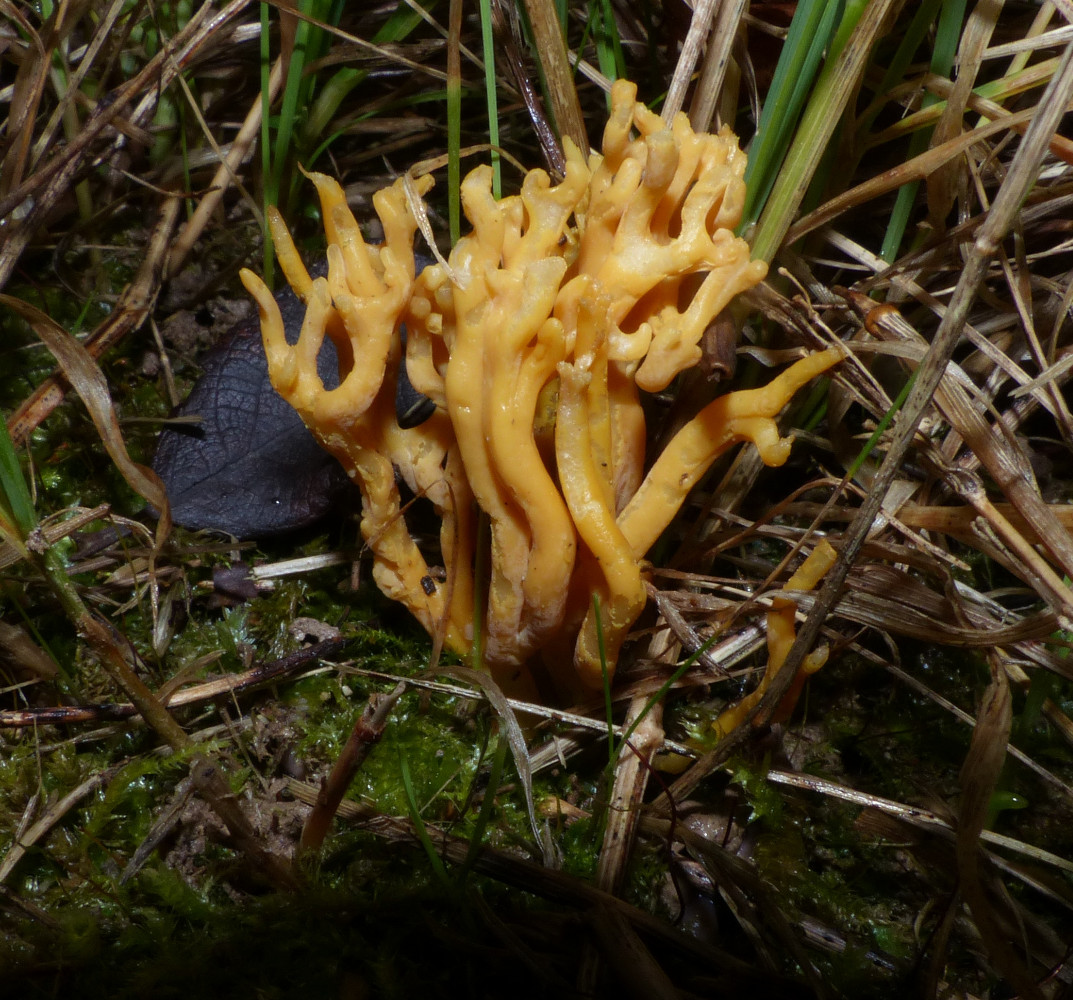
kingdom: Fungi
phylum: Basidiomycota
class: Agaricomycetes
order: Agaricales
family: Clavariaceae
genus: Clavulinopsis
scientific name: Clavulinopsis corniculata
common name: eng-køllesvamp
